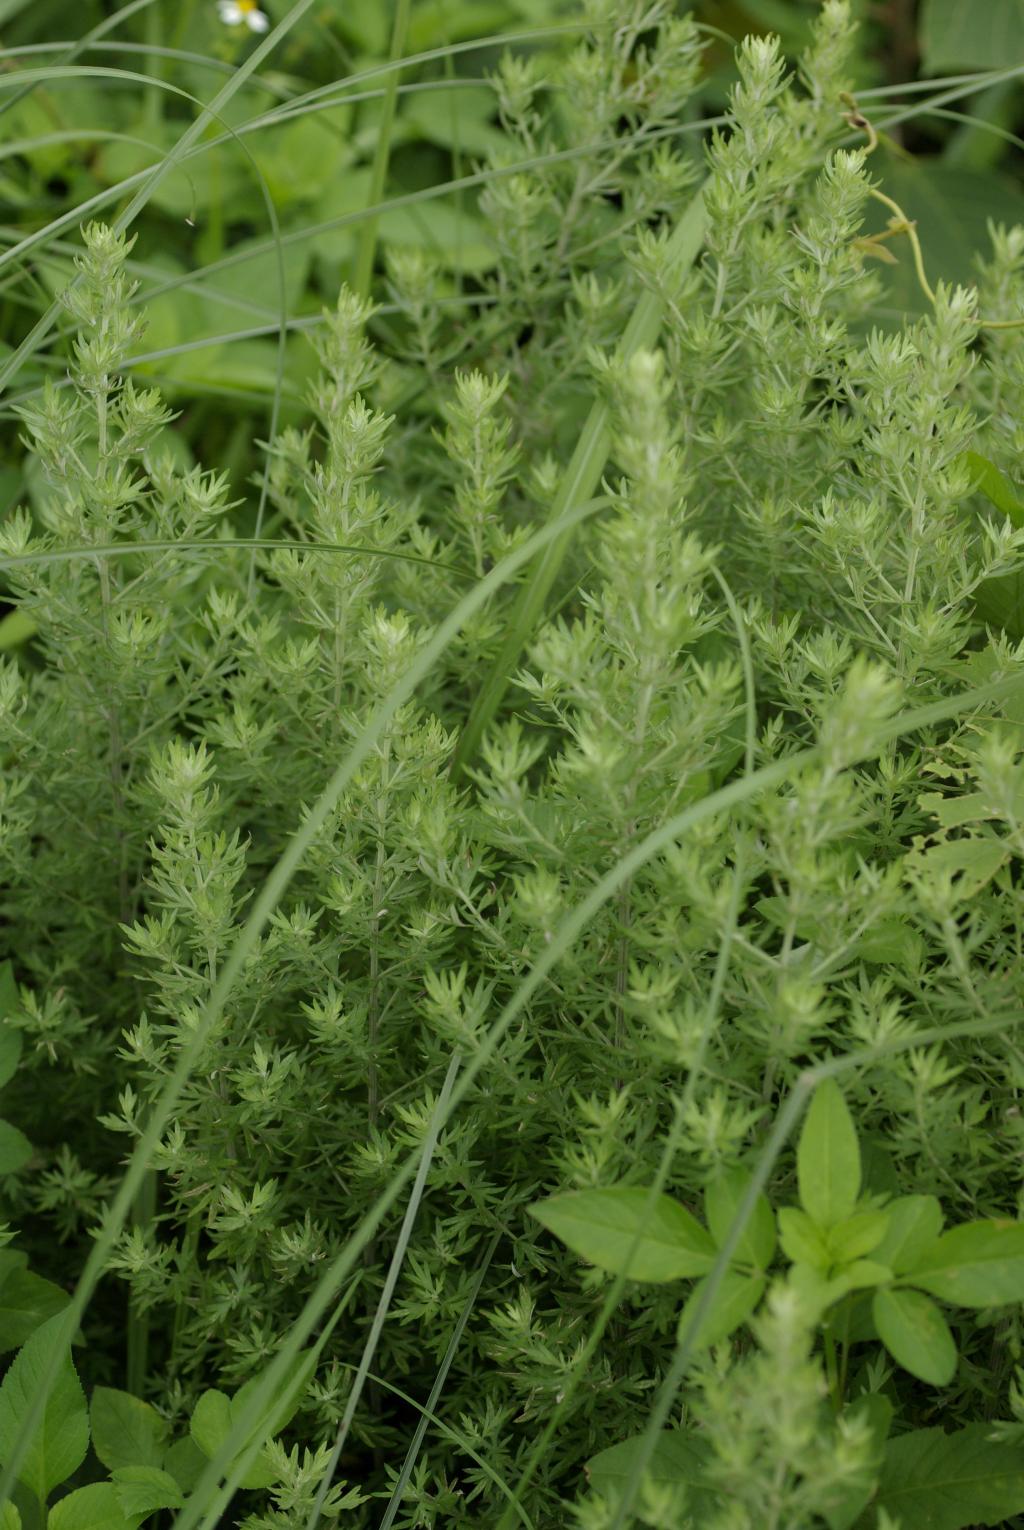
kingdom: Plantae
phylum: Tracheophyta
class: Magnoliopsida
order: Asterales
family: Asteraceae
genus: Artemisia
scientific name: Artemisia lancea
